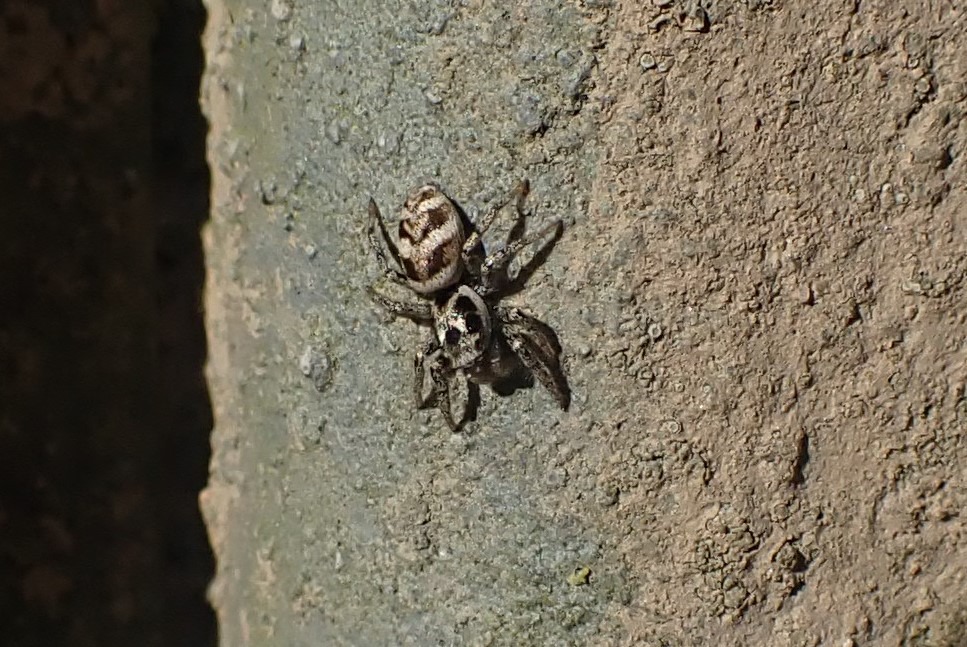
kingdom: Animalia
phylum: Arthropoda
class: Arachnida
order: Araneae
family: Salticidae
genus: Salticus
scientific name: Salticus scenicus
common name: Almindelig zebraedderkop
